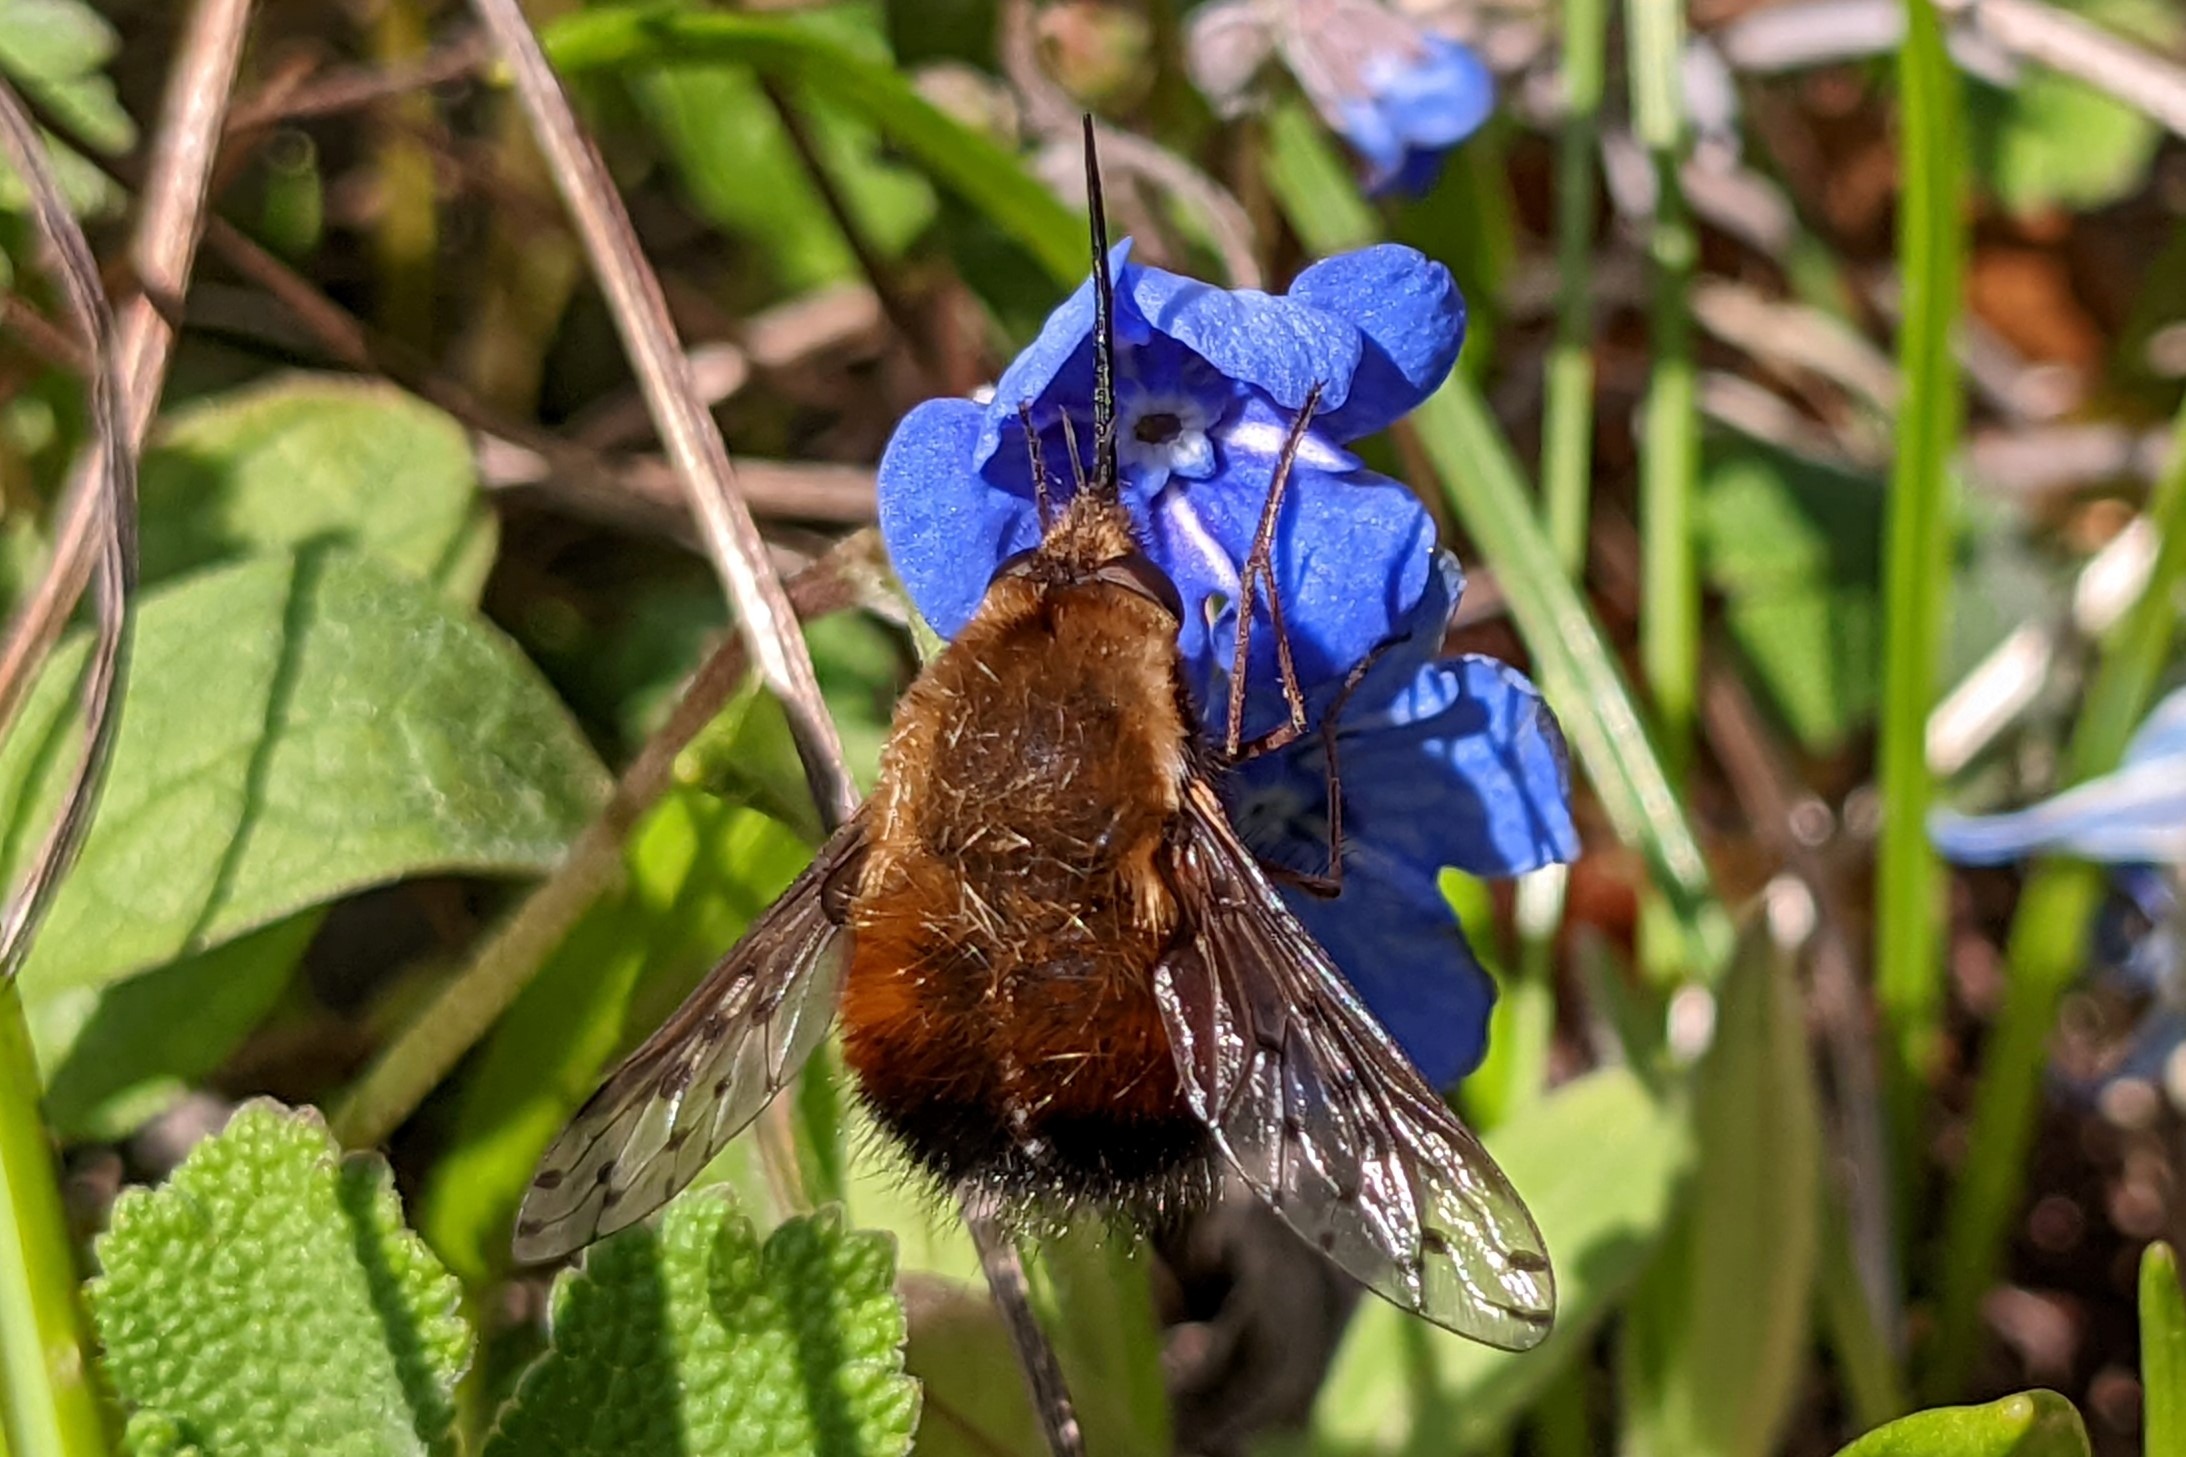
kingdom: Animalia
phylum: Arthropoda
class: Insecta
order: Diptera
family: Bombyliidae
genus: Bombylius
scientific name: Bombylius discolor
